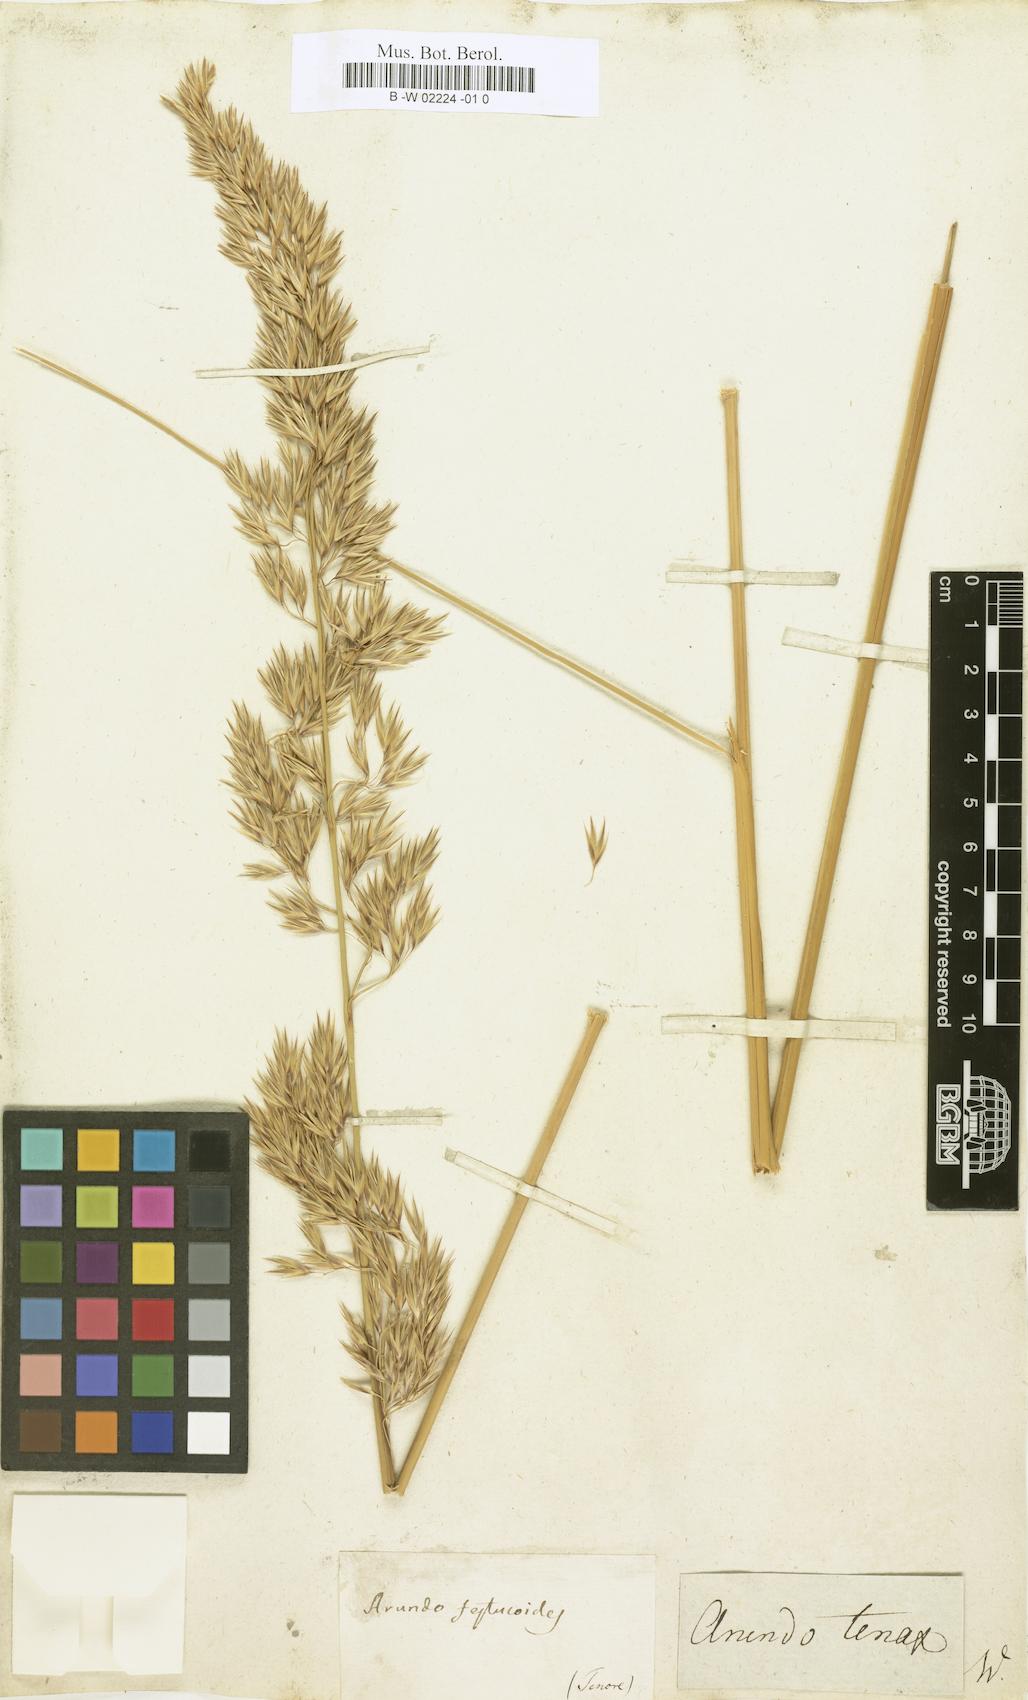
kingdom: Plantae
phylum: Tracheophyta
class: Liliopsida
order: Poales
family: Poaceae
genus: Ampelodesmos
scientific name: Ampelodesmos mauritanicus
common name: Mauritanian grass
